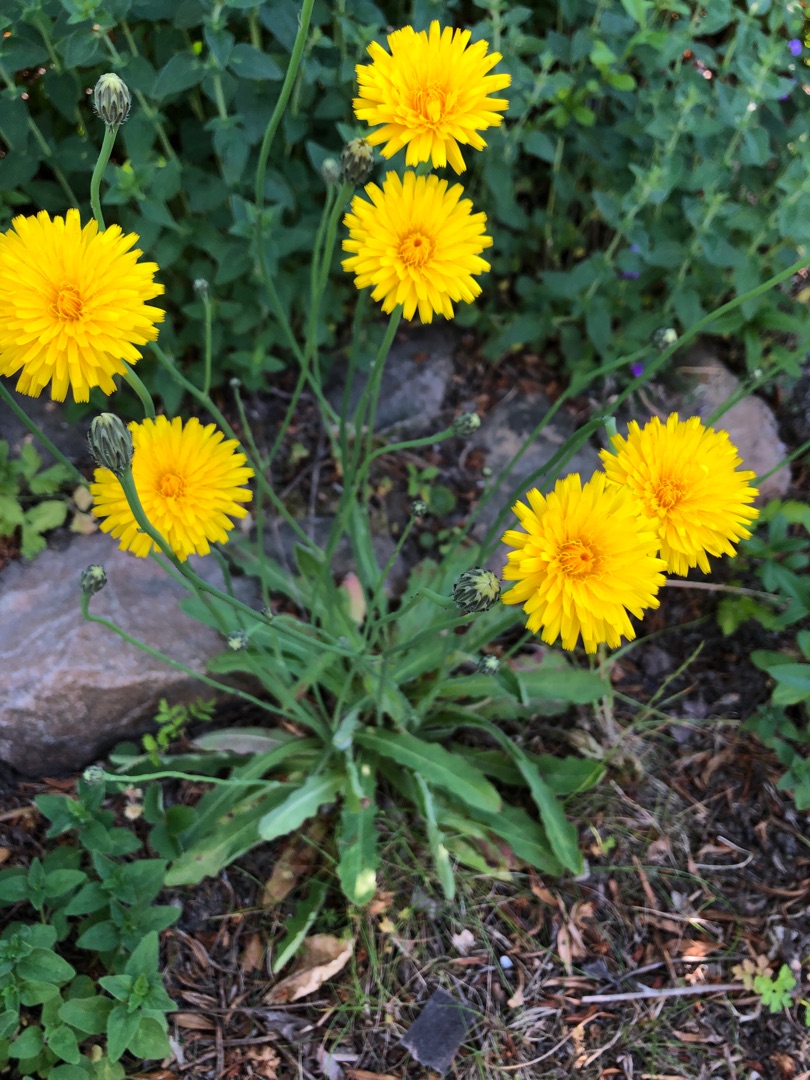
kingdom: Plantae
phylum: Tracheophyta
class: Magnoliopsida
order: Asterales
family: Asteraceae
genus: Hypochaeris
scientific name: Hypochaeris radicata
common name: Almindelig kongepen
